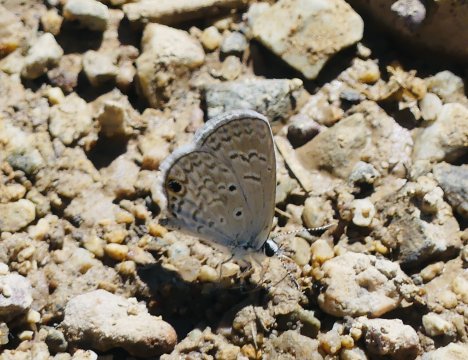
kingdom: Animalia
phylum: Arthropoda
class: Insecta
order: Lepidoptera
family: Lycaenidae
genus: Hemiargus
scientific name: Hemiargus ceraunus
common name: Ceraunus Blue
